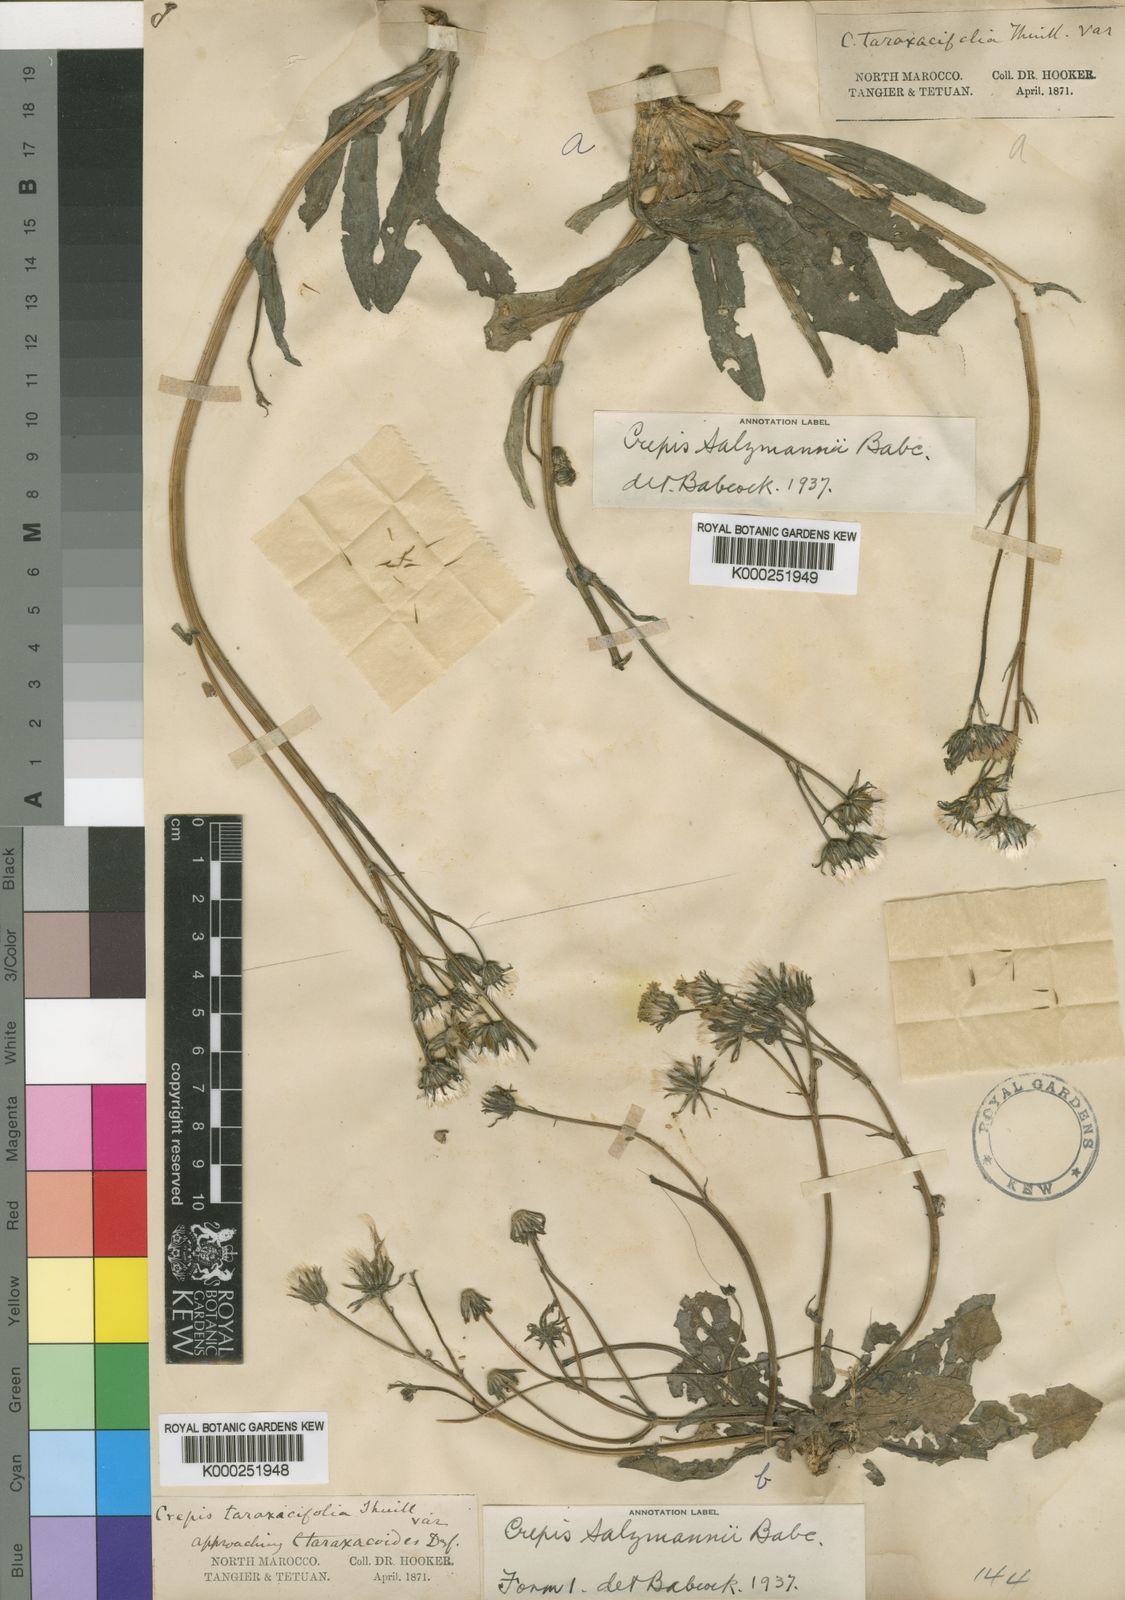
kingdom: Plantae
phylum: Tracheophyta
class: Magnoliopsida
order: Asterales
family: Asteraceae
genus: Crepis
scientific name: Crepis salzmannii
